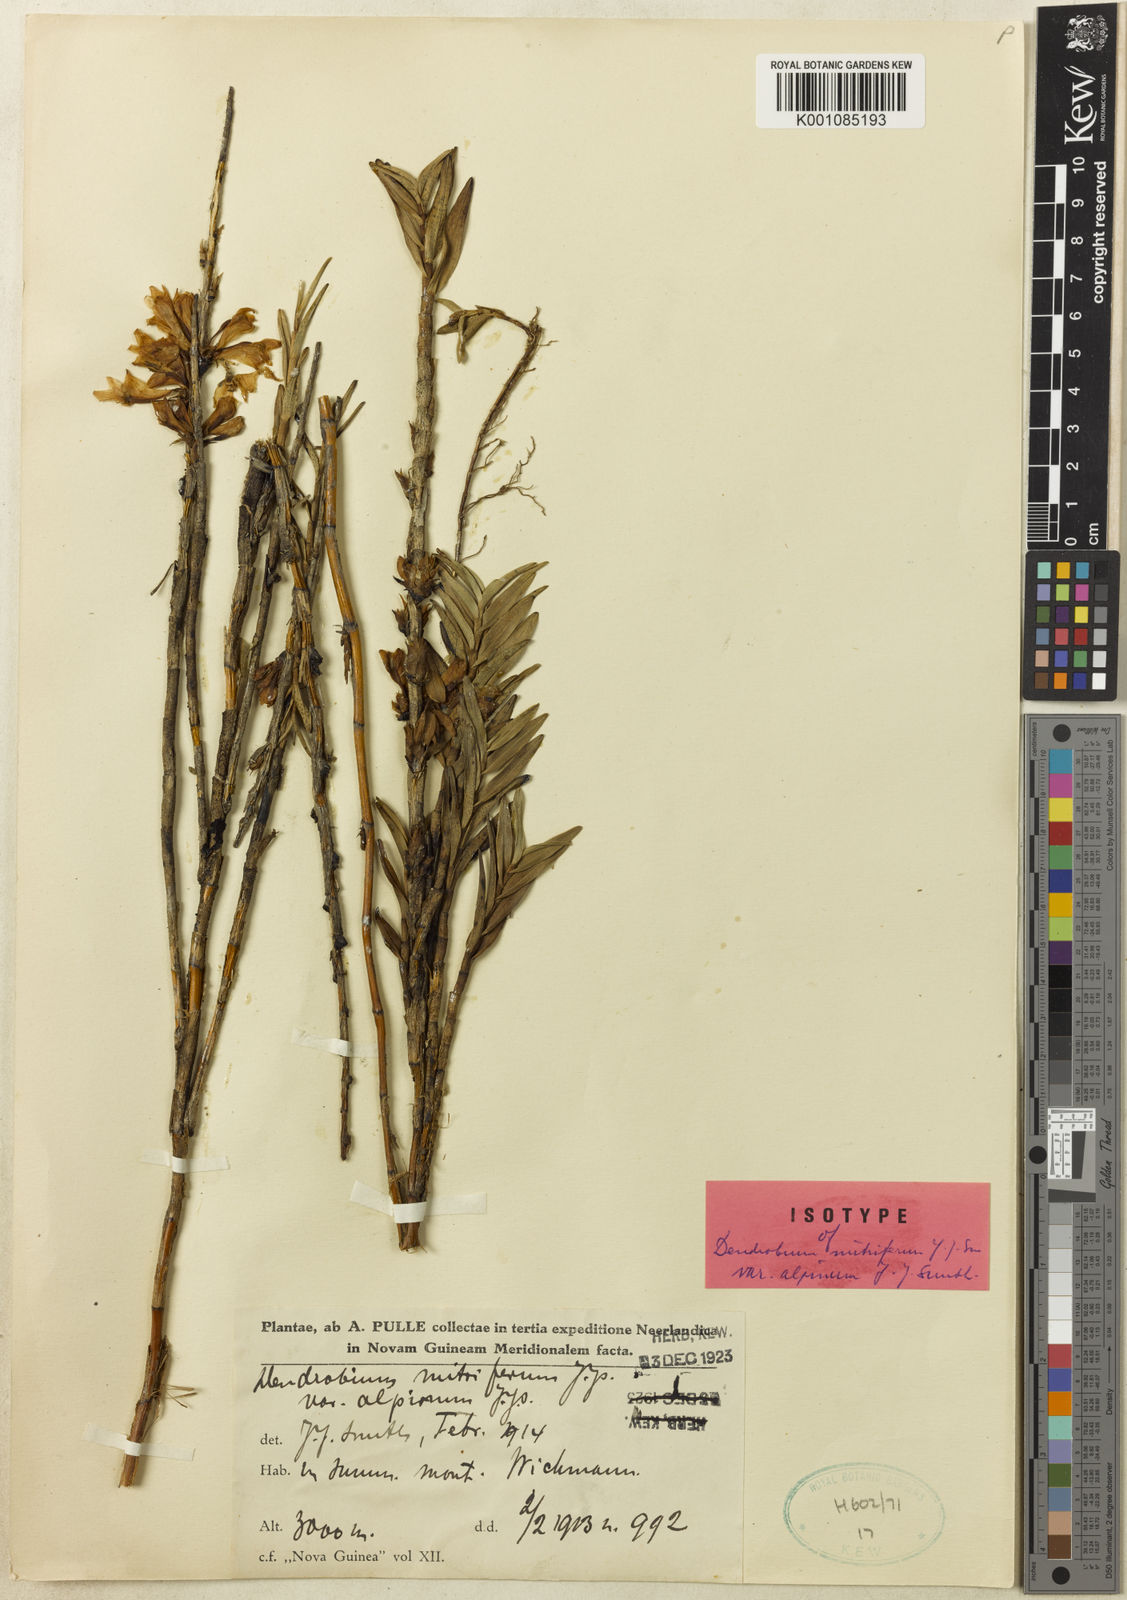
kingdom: Plantae
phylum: Tracheophyta
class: Liliopsida
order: Asparagales
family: Orchidaceae
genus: Dendrobium
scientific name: Dendrobium subclausum
